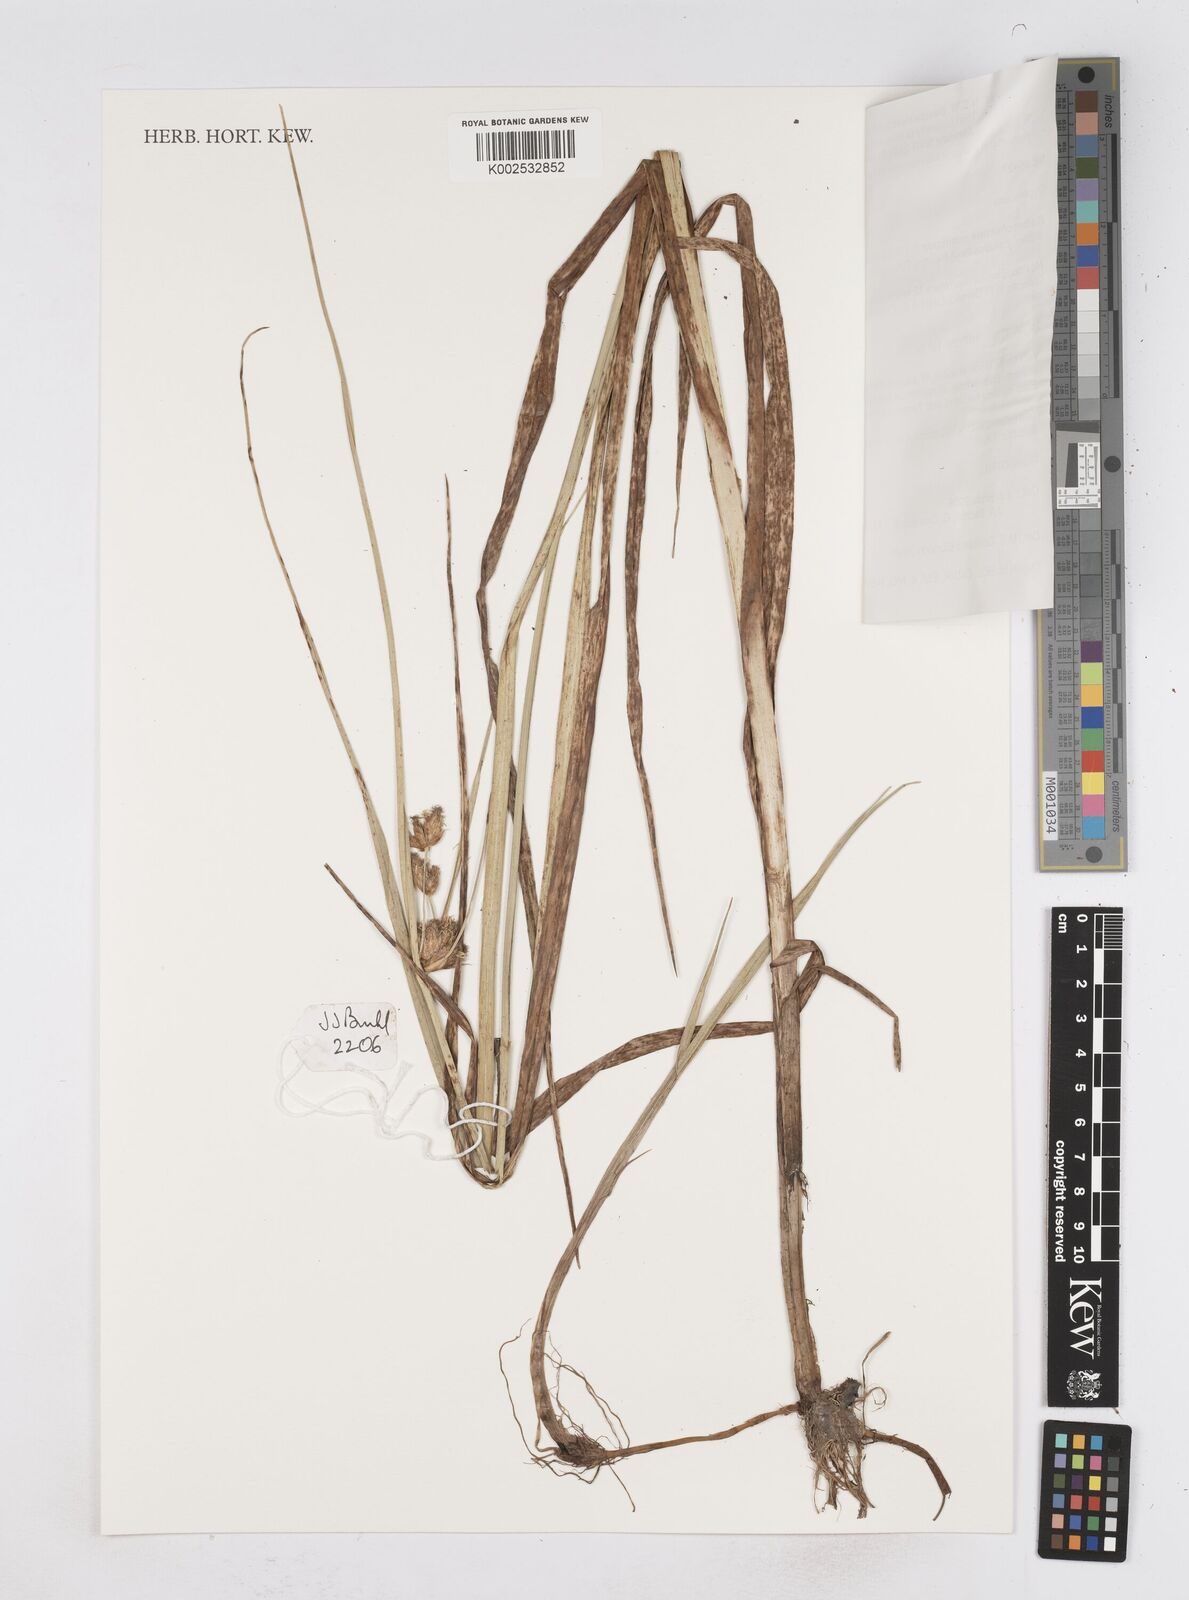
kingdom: Plantae
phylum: Tracheophyta
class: Liliopsida
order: Poales
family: Cyperaceae
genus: Bolboschoenus
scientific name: Bolboschoenus maritimus
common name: Sea club-rush
